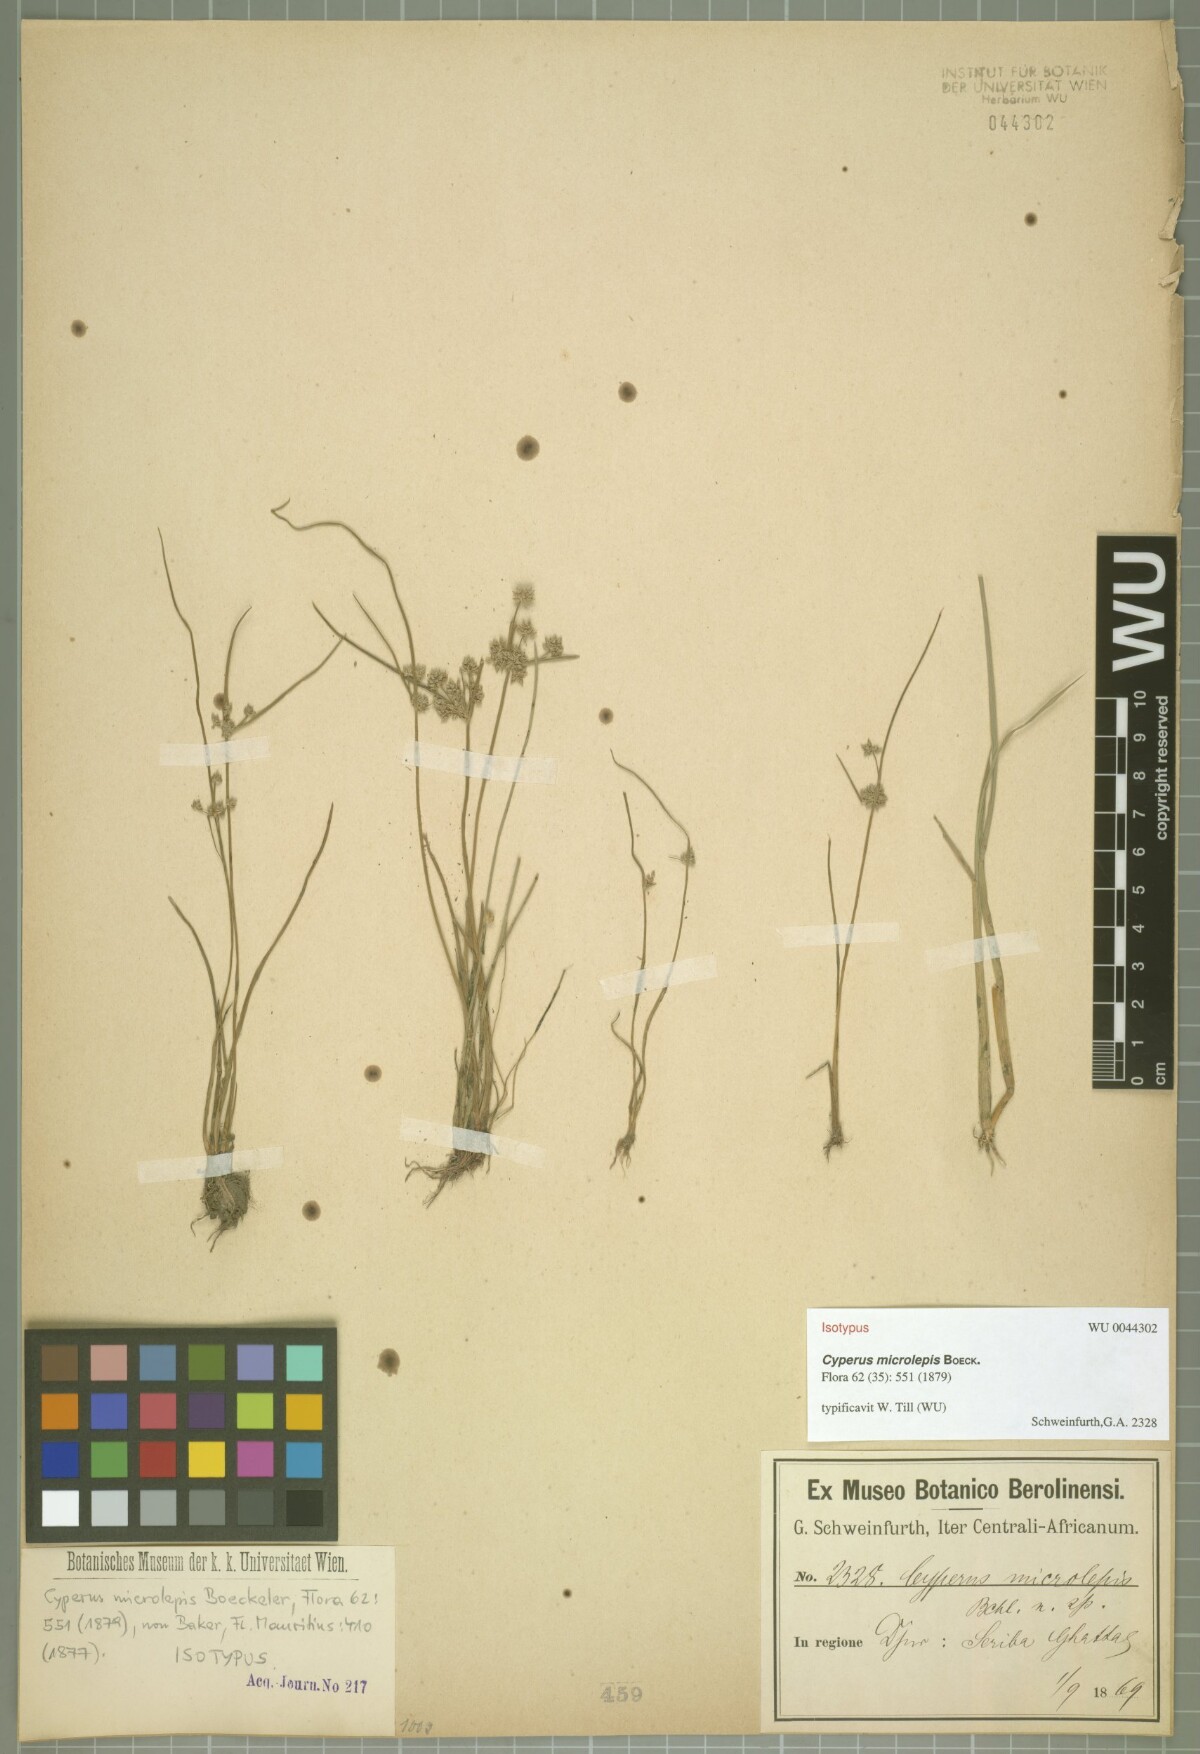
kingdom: Plantae
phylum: Tracheophyta
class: Liliopsida
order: Poales
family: Cyperaceae
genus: Cyperus
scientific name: Cyperus submicrolepis
